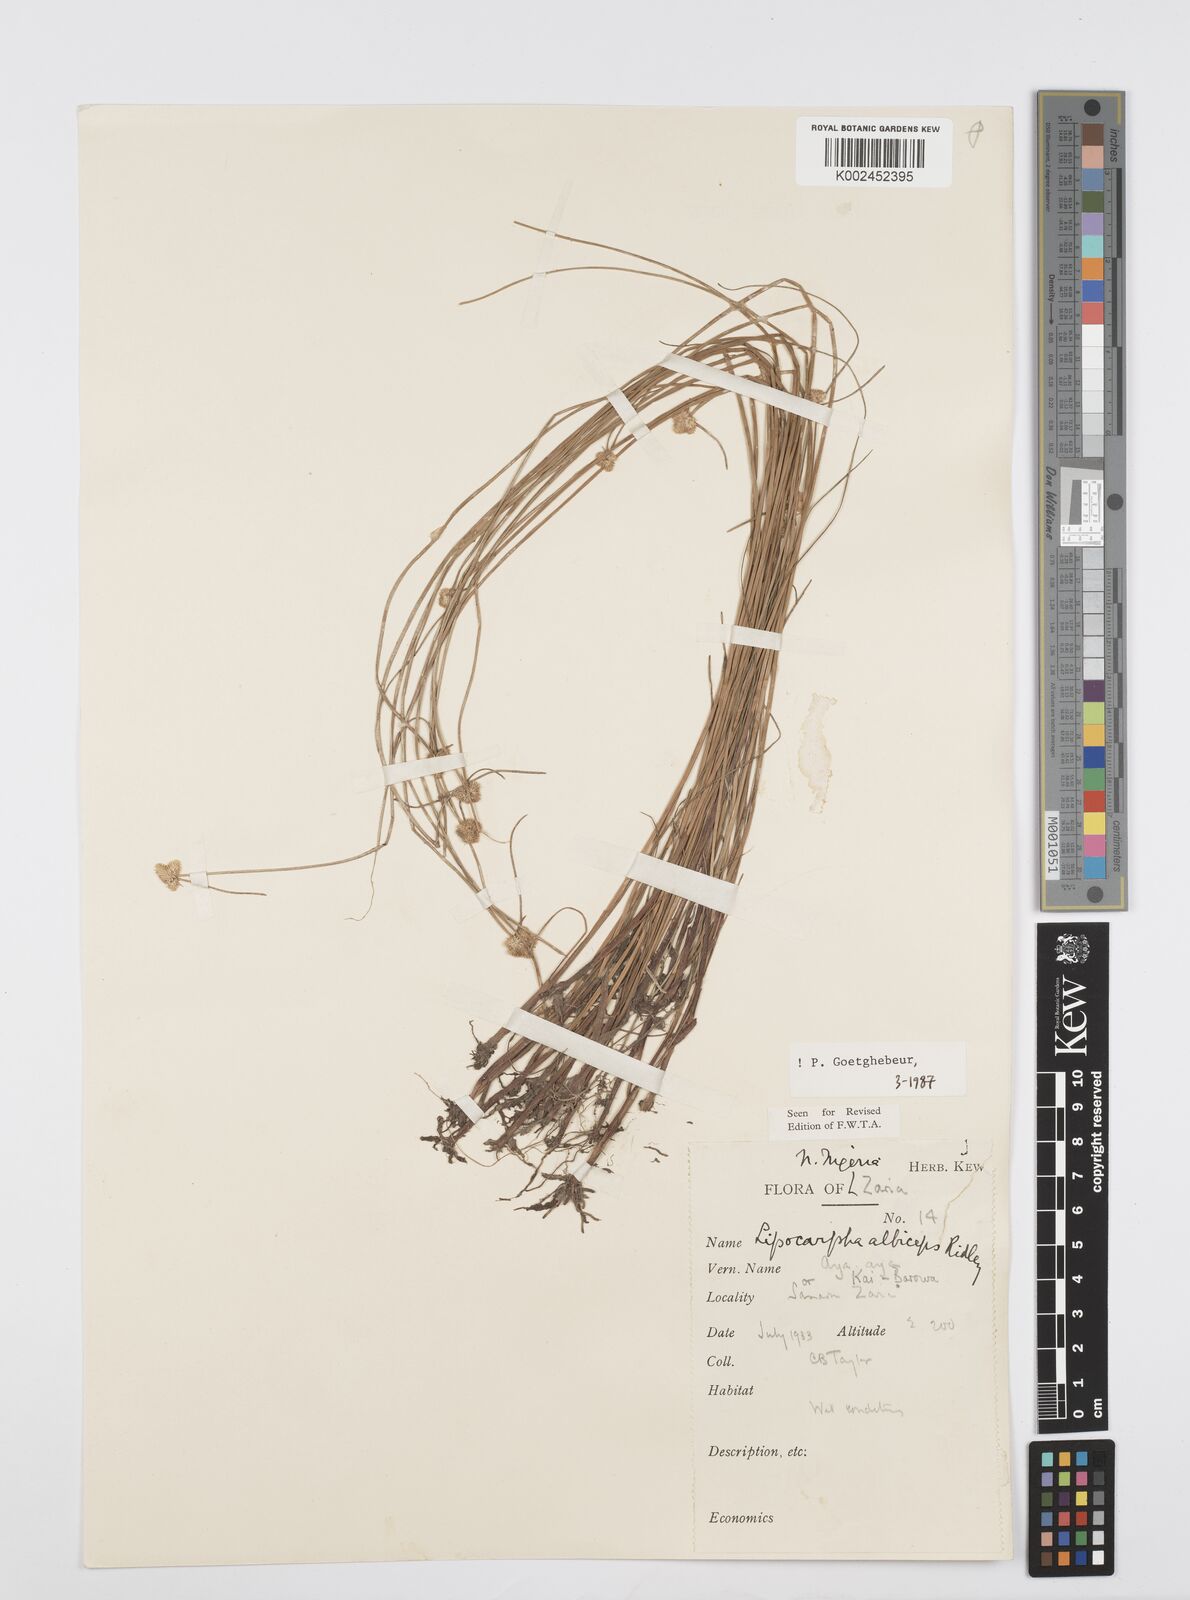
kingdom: Plantae
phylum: Tracheophyta
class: Liliopsida
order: Poales
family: Cyperaceae
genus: Cyperus
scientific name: Cyperus albiceps
